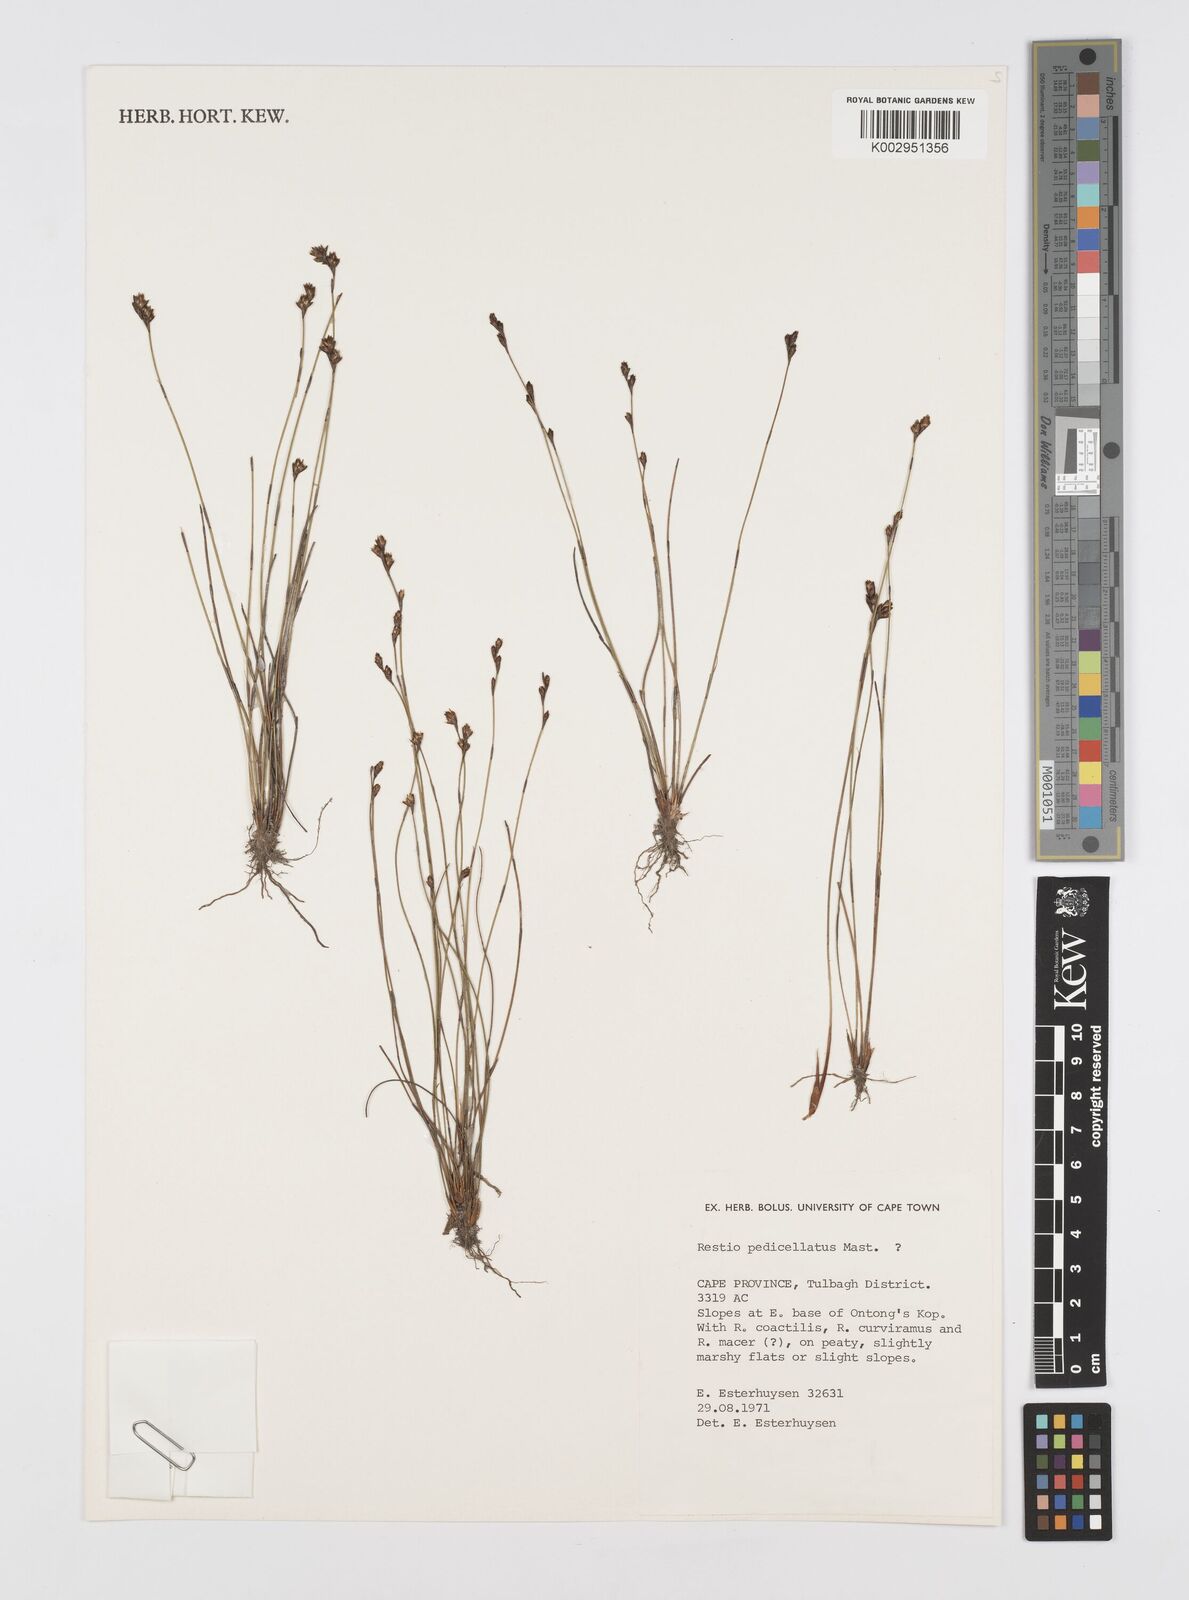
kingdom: Plantae
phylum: Tracheophyta
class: Liliopsida
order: Poales
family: Restionaceae
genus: Restio
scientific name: Restio pedicellatus
